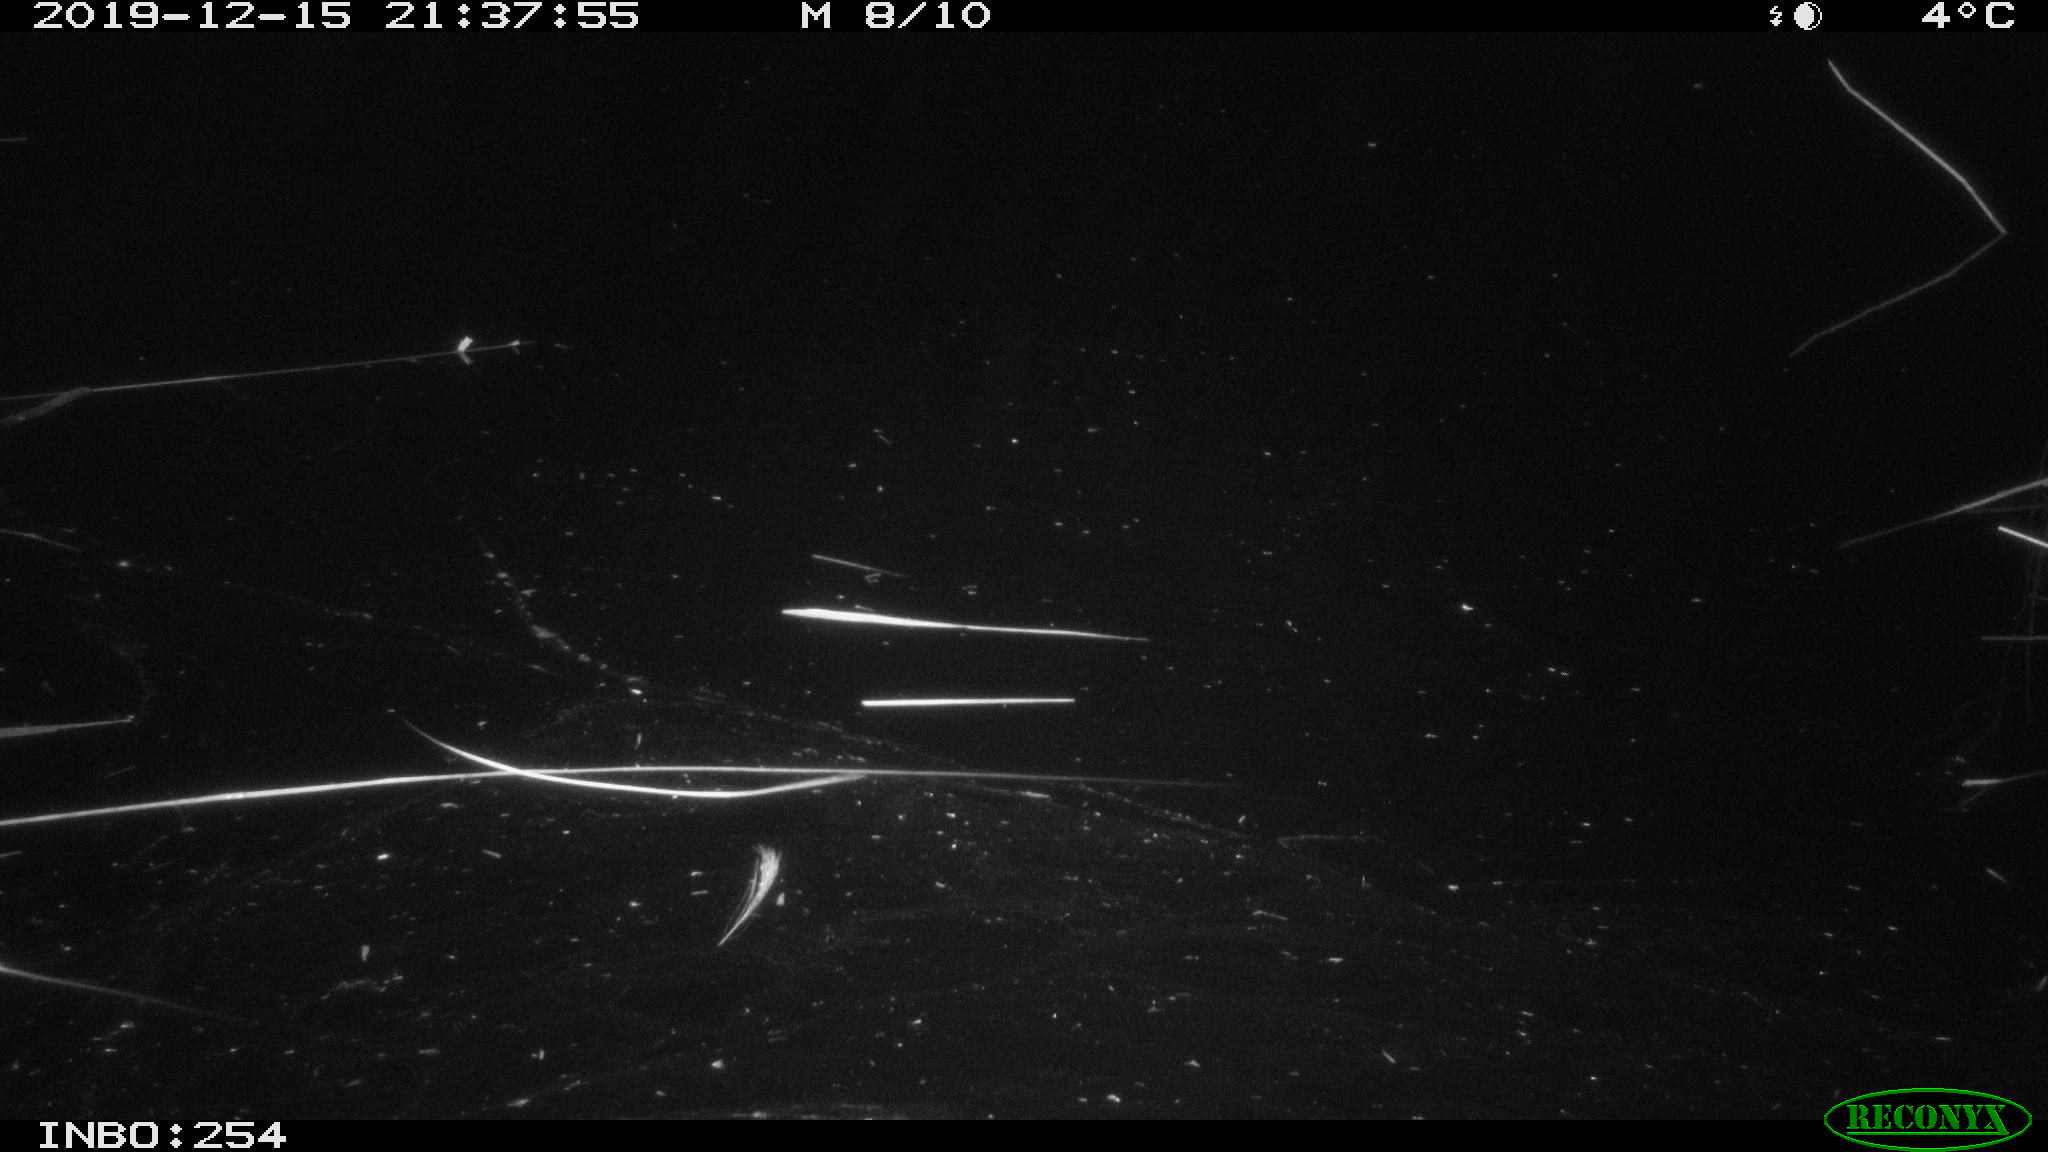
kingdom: Animalia
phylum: Chordata
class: Mammalia
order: Rodentia
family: Muridae
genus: Rattus
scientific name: Rattus norvegicus
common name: Brown rat
